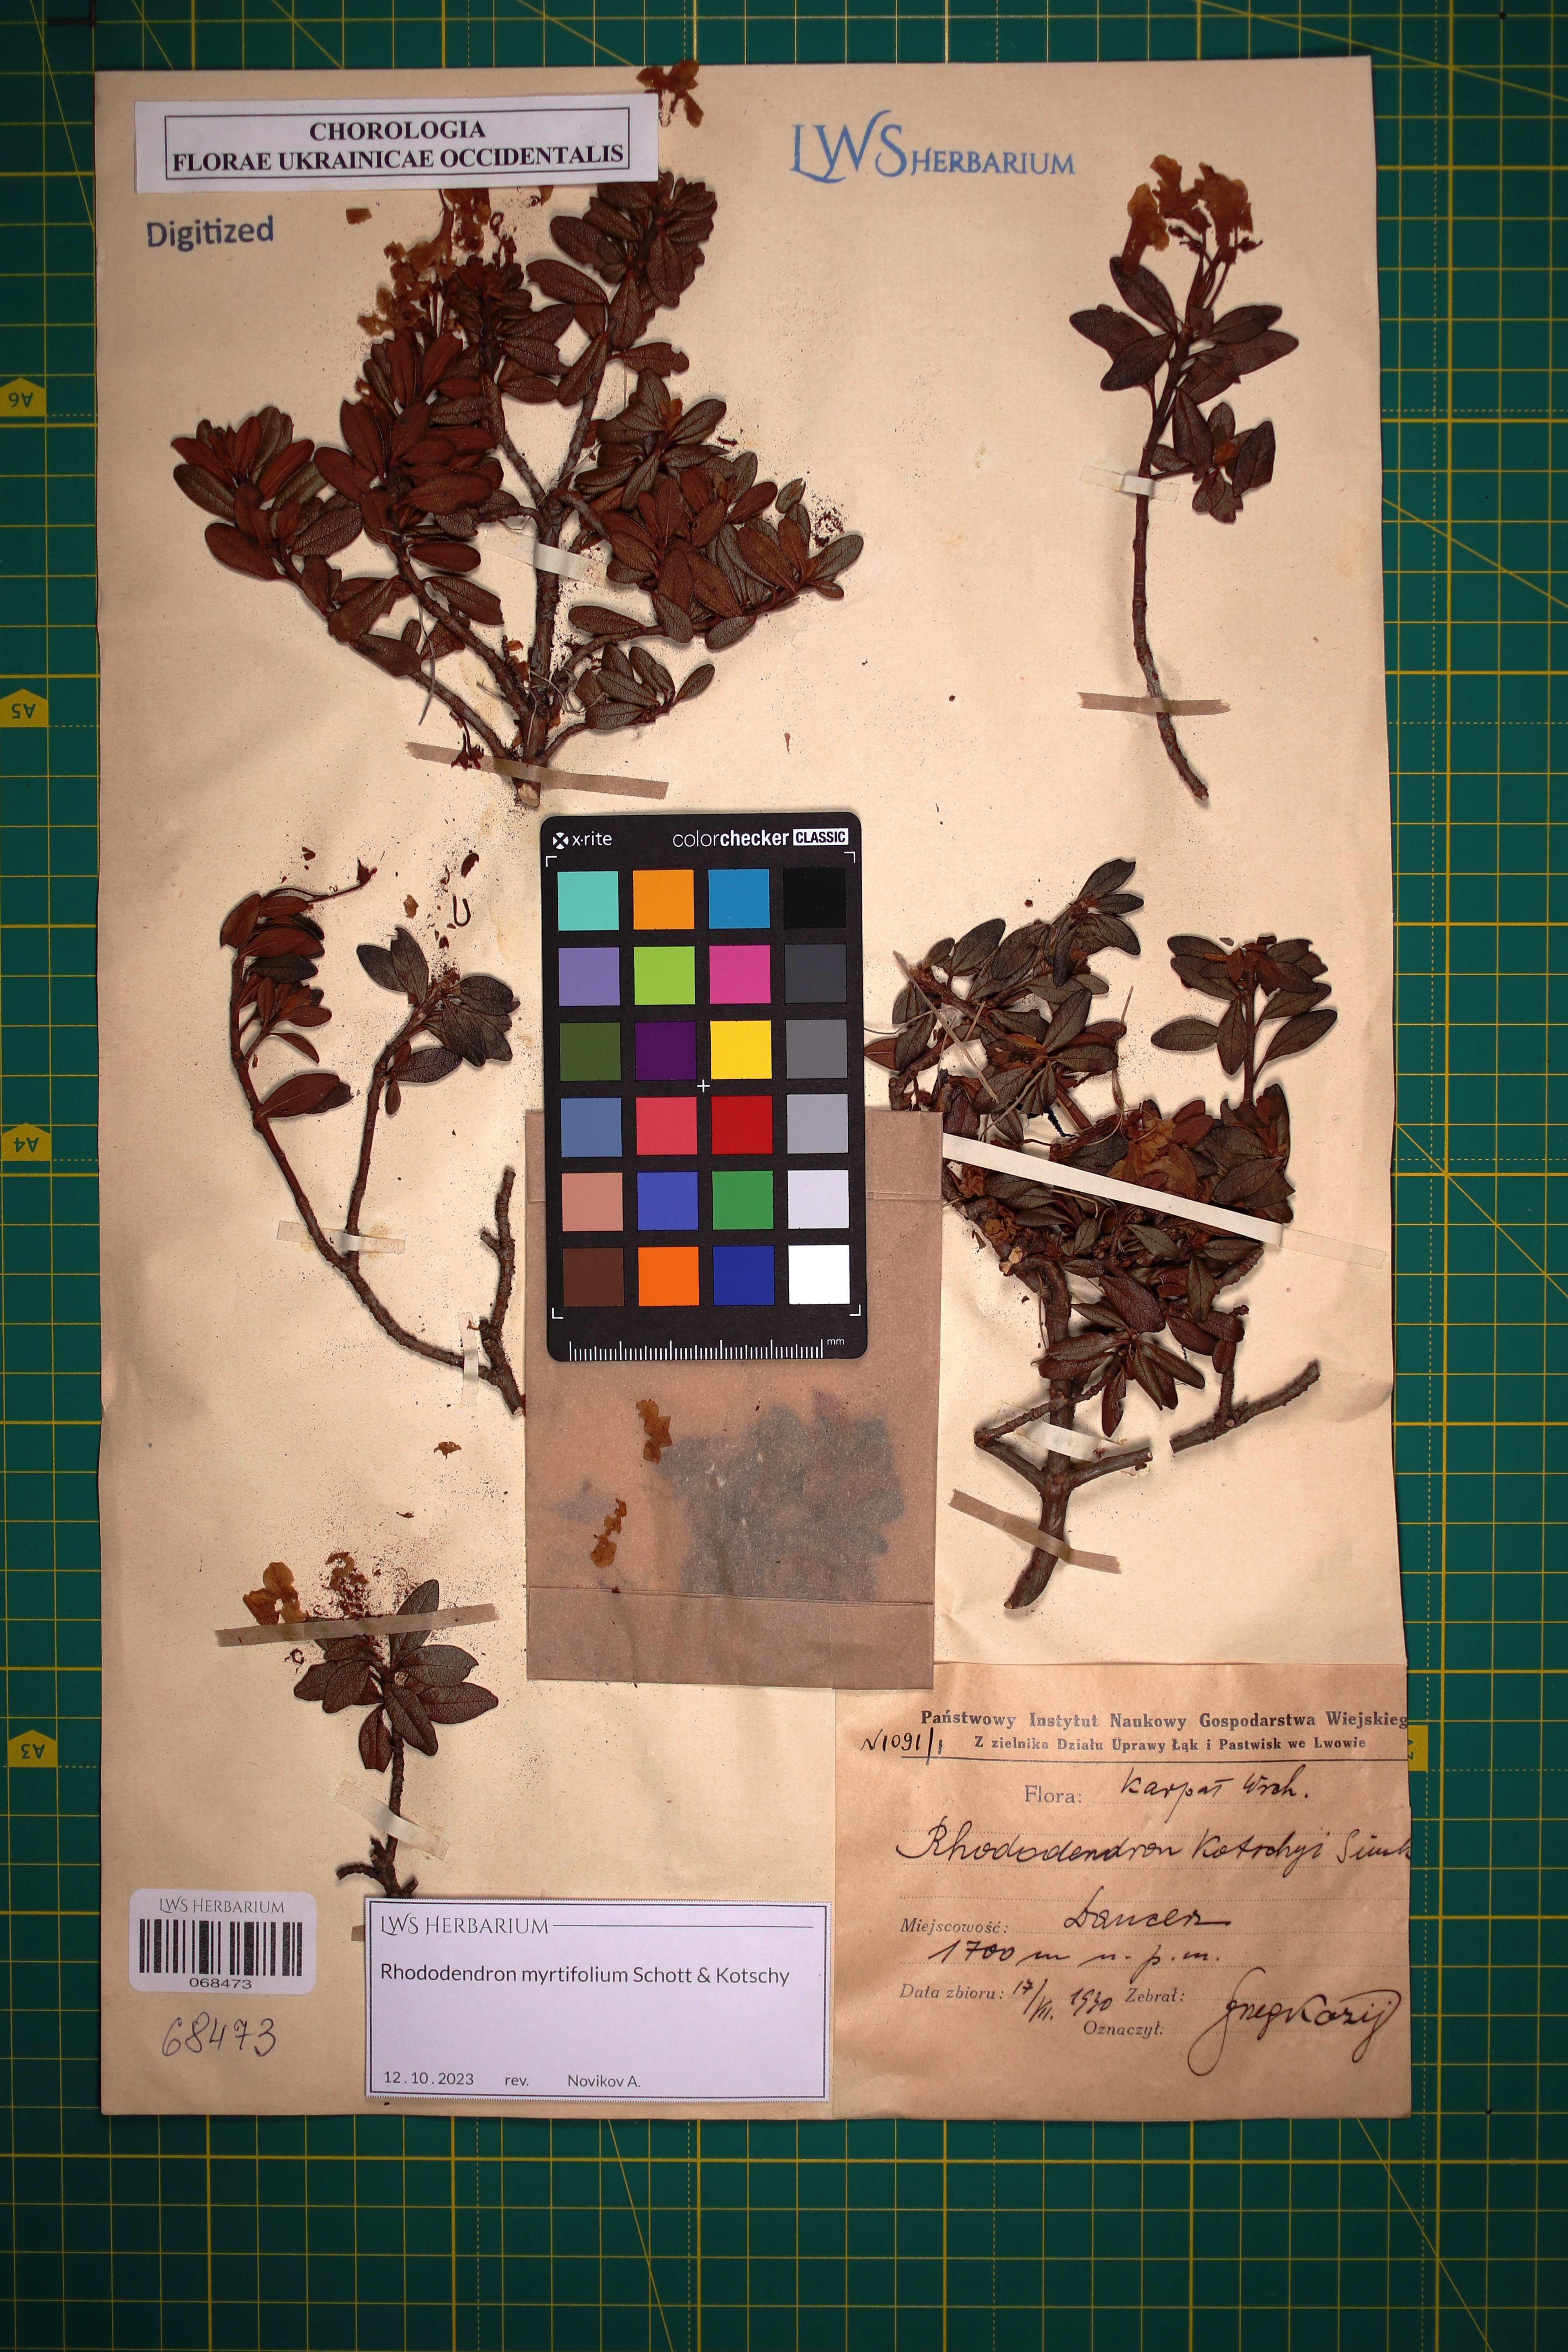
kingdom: Plantae
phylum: Tracheophyta
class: Magnoliopsida
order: Ericales
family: Ericaceae
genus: Rhododendron
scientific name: Rhododendron kotschyi
